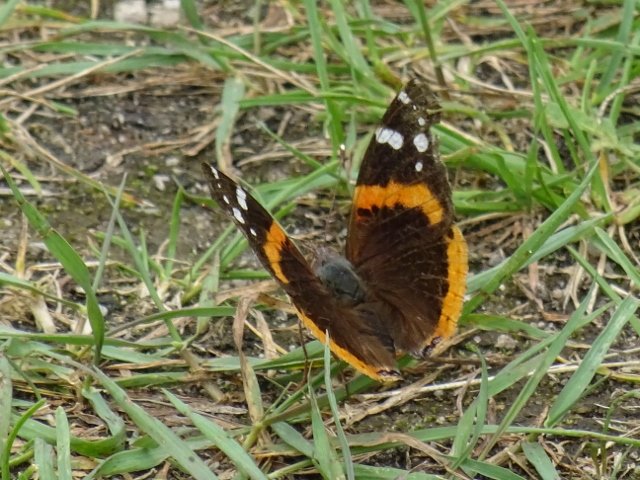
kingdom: Animalia
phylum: Arthropoda
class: Insecta
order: Lepidoptera
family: Nymphalidae
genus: Vanessa
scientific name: Vanessa atalanta
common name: Red Admiral
